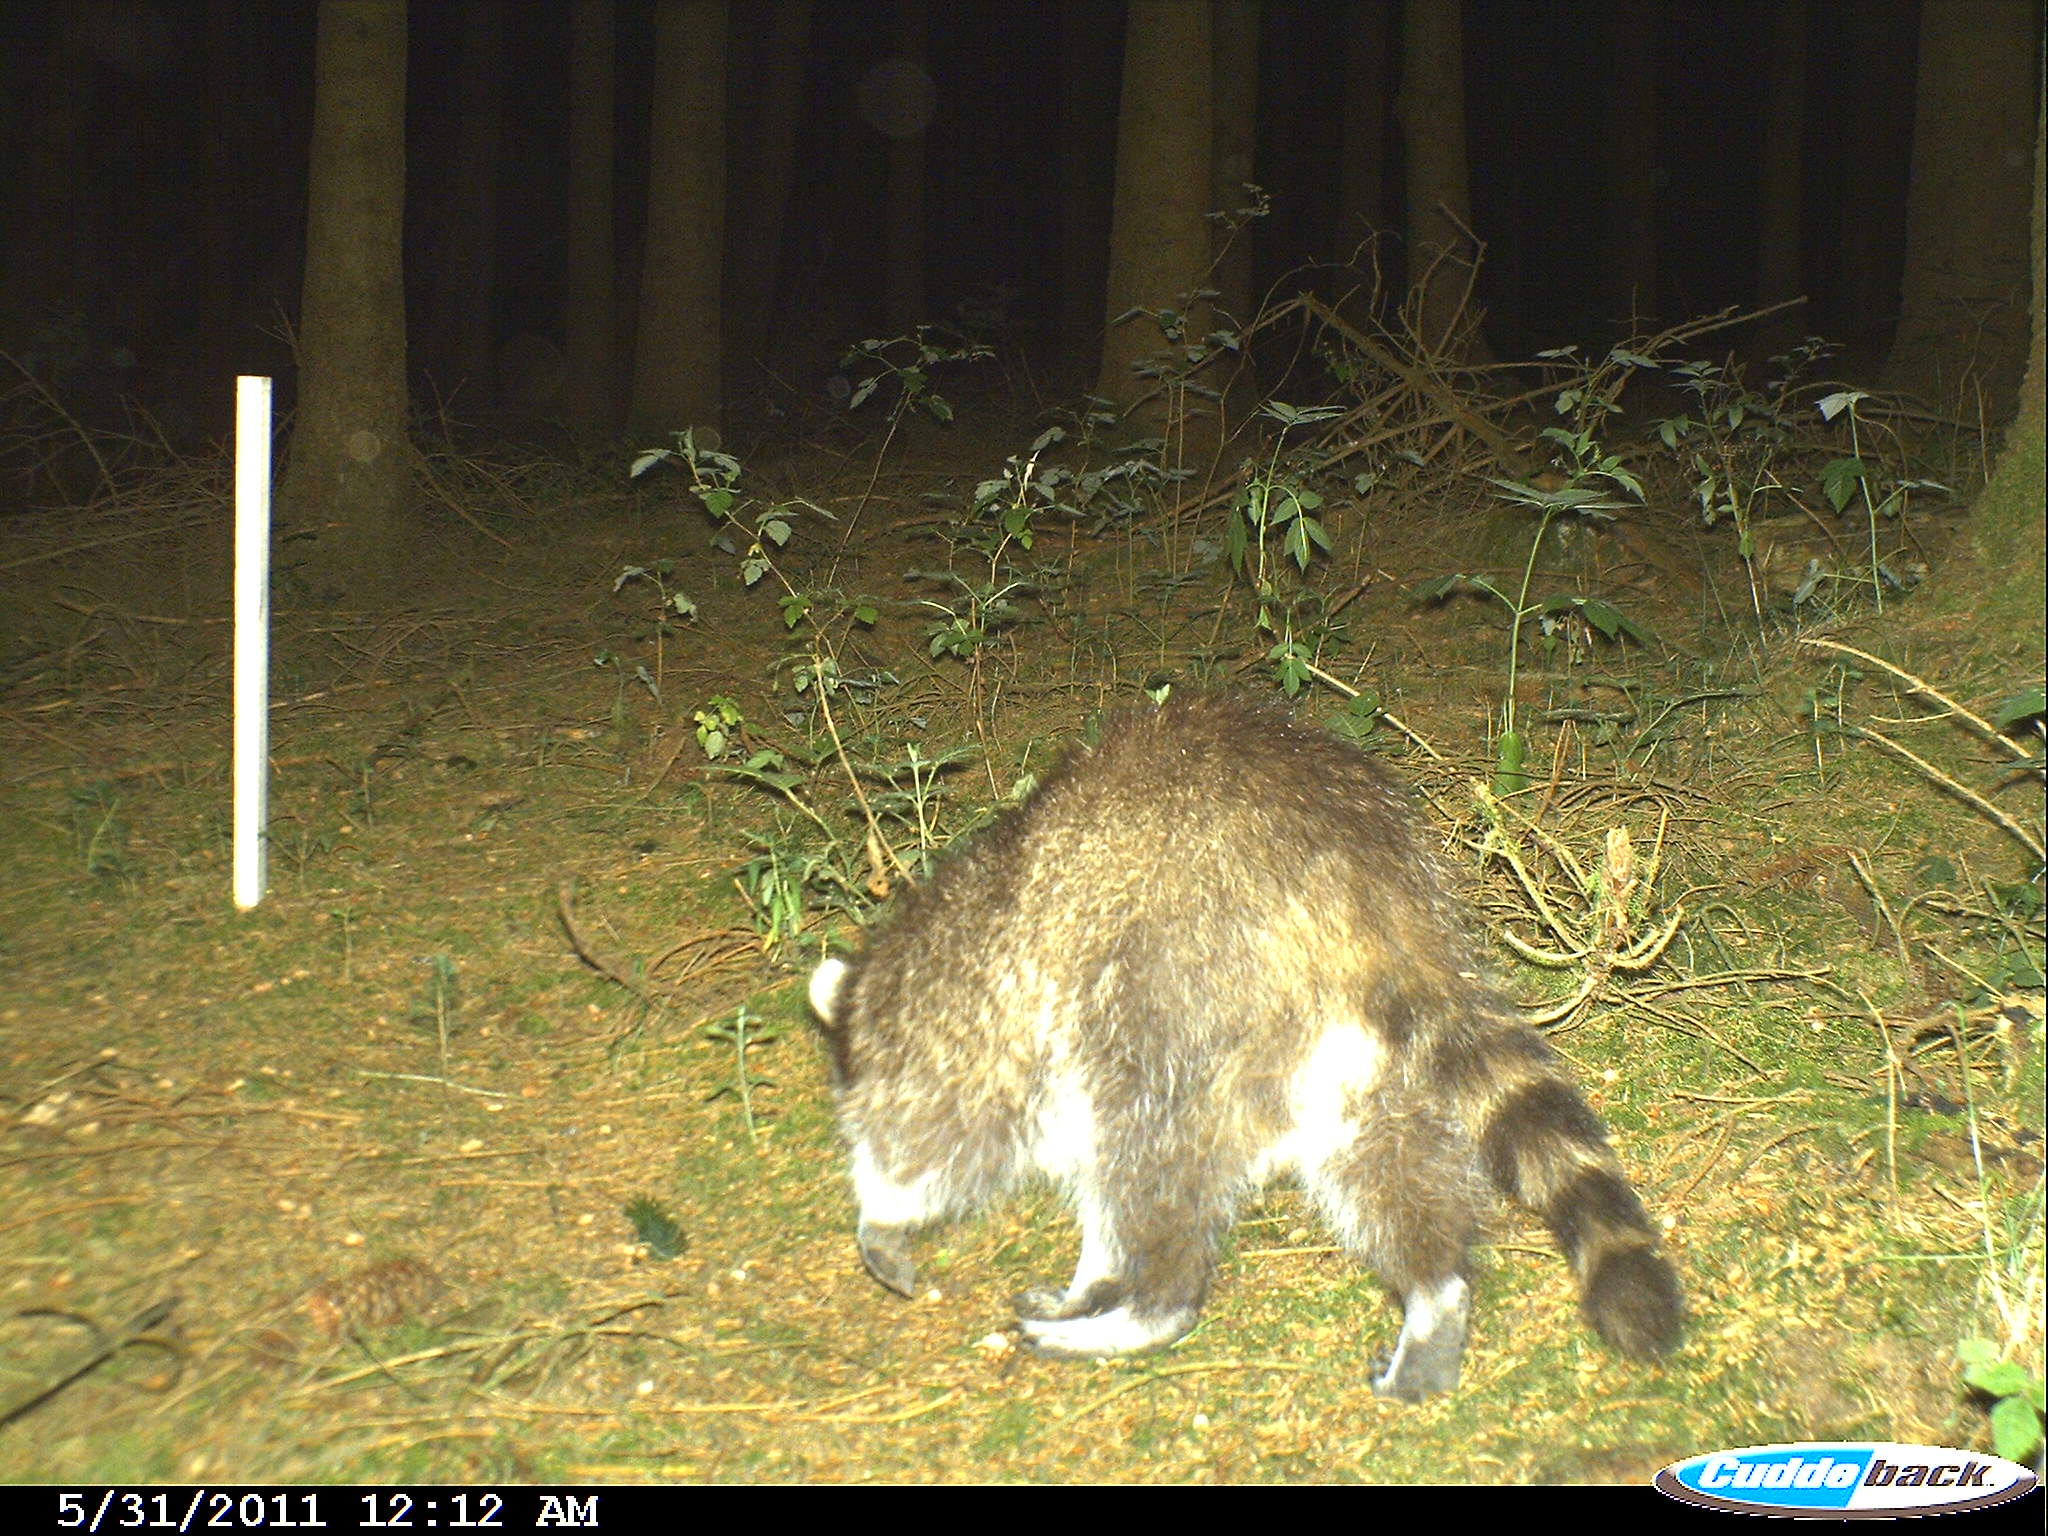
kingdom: Animalia
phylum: Chordata
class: Mammalia
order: Carnivora
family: Procyonidae
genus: Procyon
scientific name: Procyon lotor
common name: Raccoon
